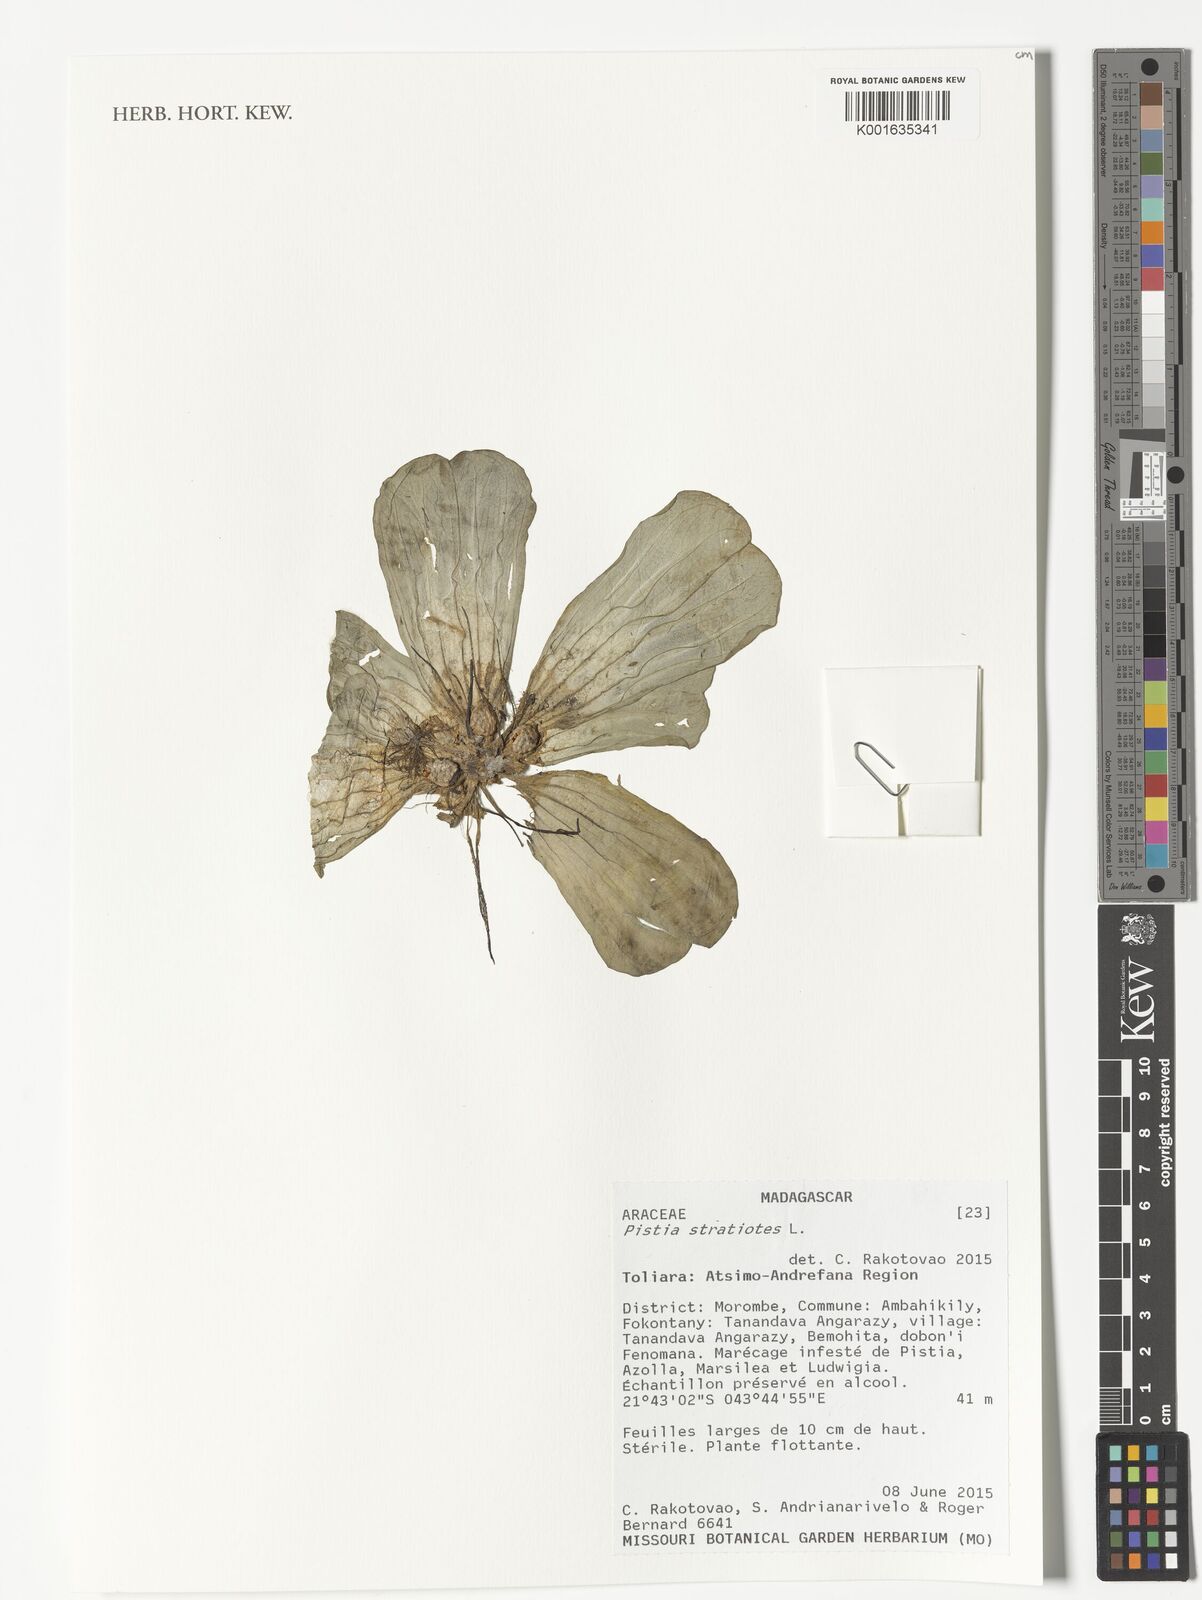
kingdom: Plantae
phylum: Tracheophyta
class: Liliopsida
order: Alismatales
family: Araceae
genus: Pistia
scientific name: Pistia stratiotes
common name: Water lettuce
